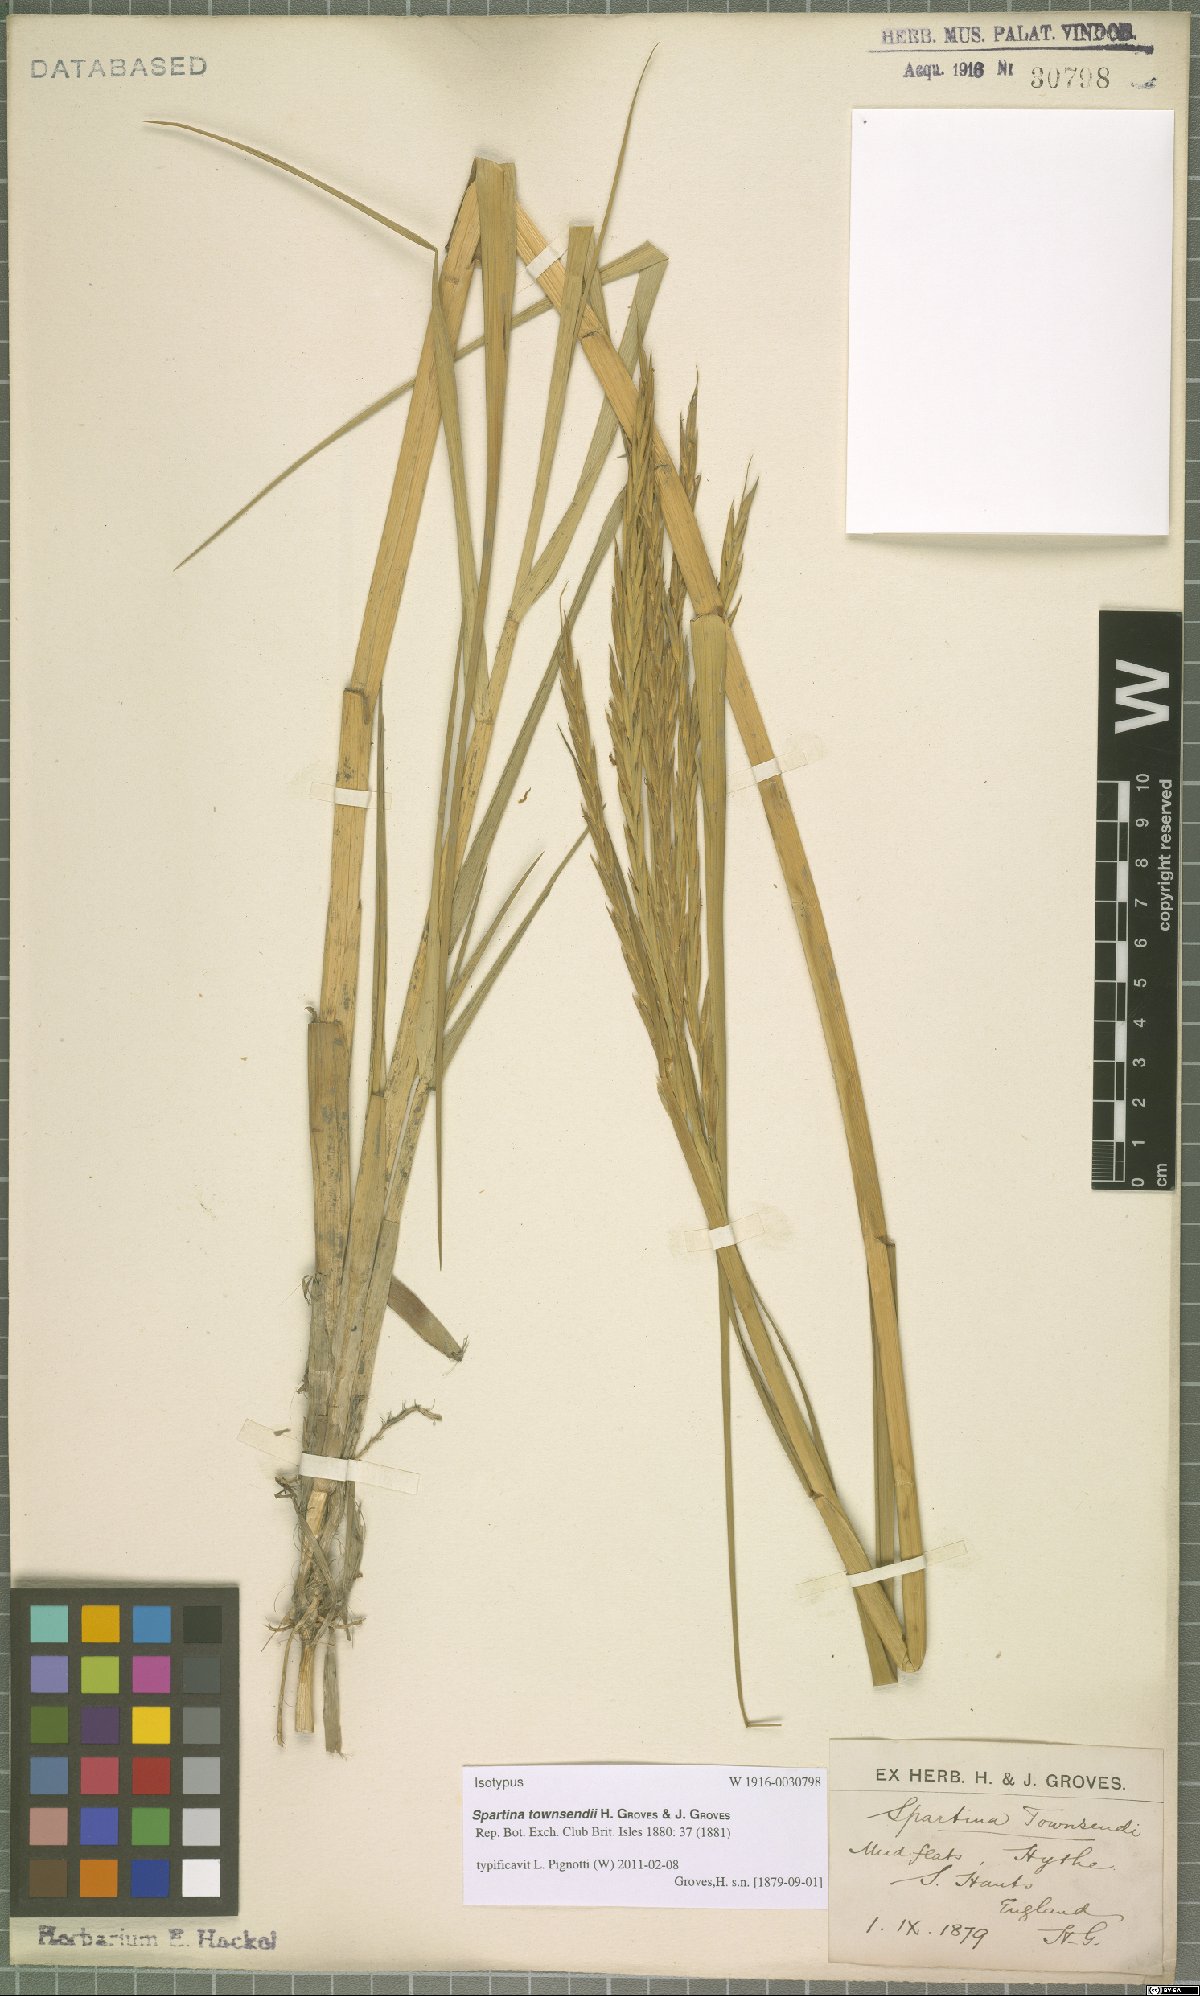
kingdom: Plantae
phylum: Tracheophyta
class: Liliopsida
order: Poales
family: Poaceae
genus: Sporobolus
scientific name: Sporobolus townsendii
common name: Townsend's cordgrass
